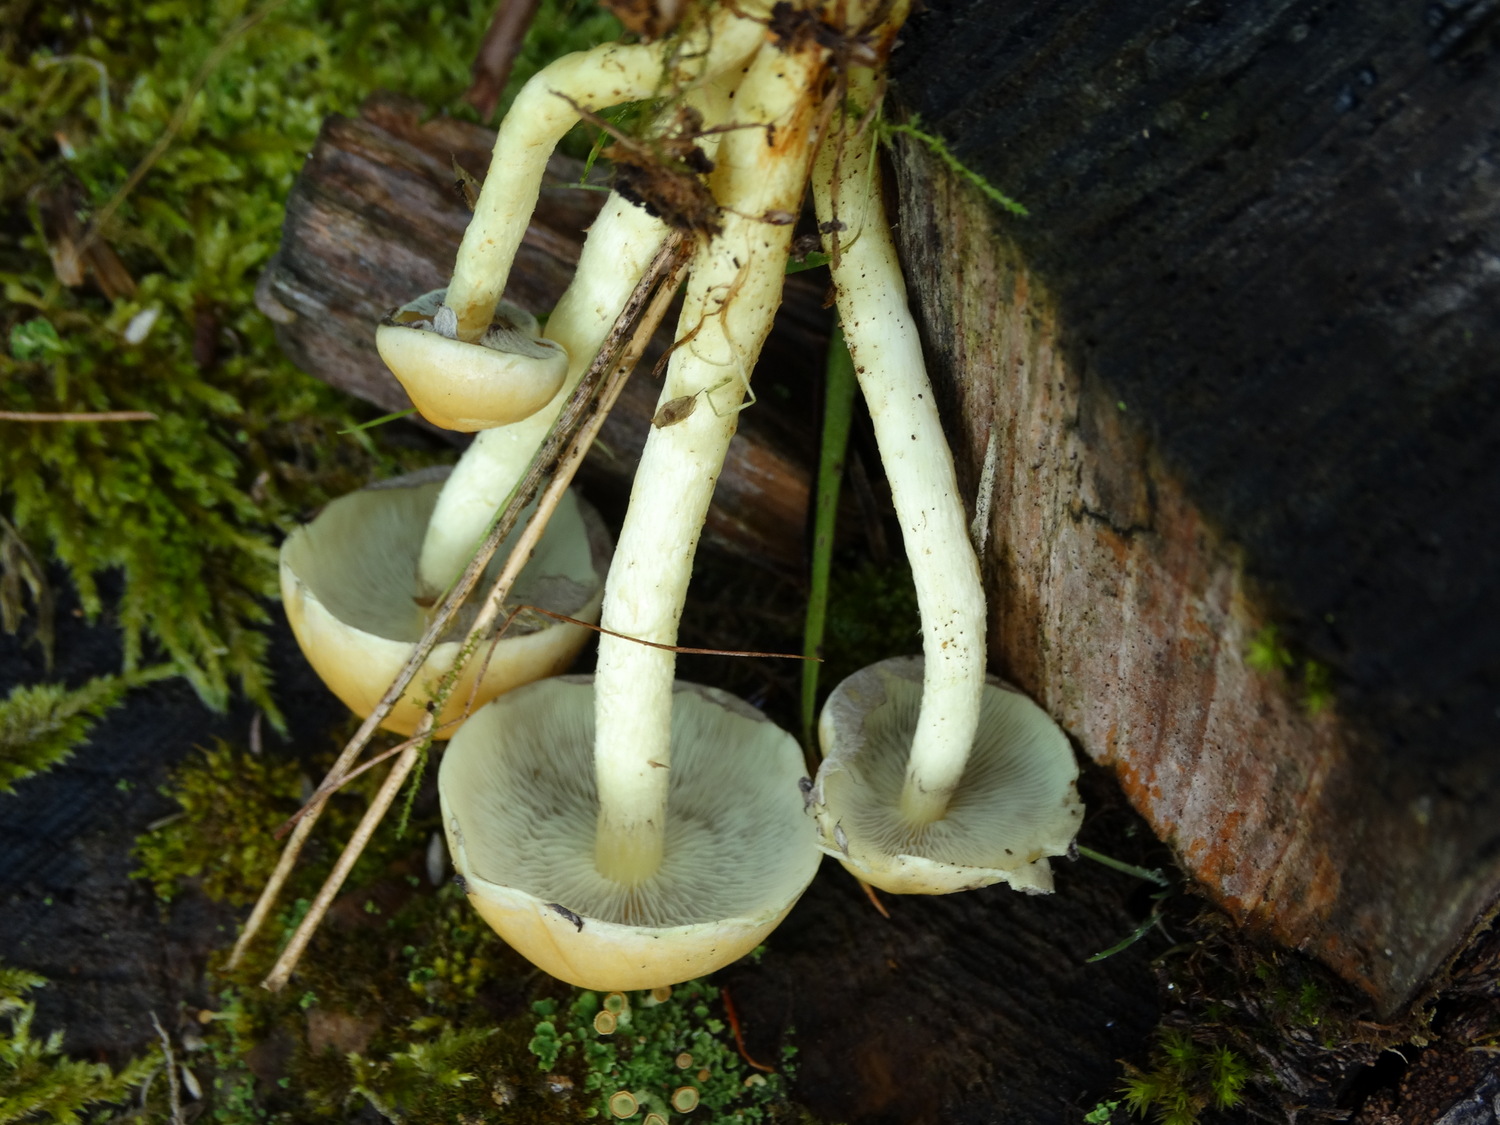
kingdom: Fungi
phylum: Basidiomycota
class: Agaricomycetes
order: Agaricales
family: Strophariaceae
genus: Hypholoma
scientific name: Hypholoma capnoides
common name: gran-svovlhat
